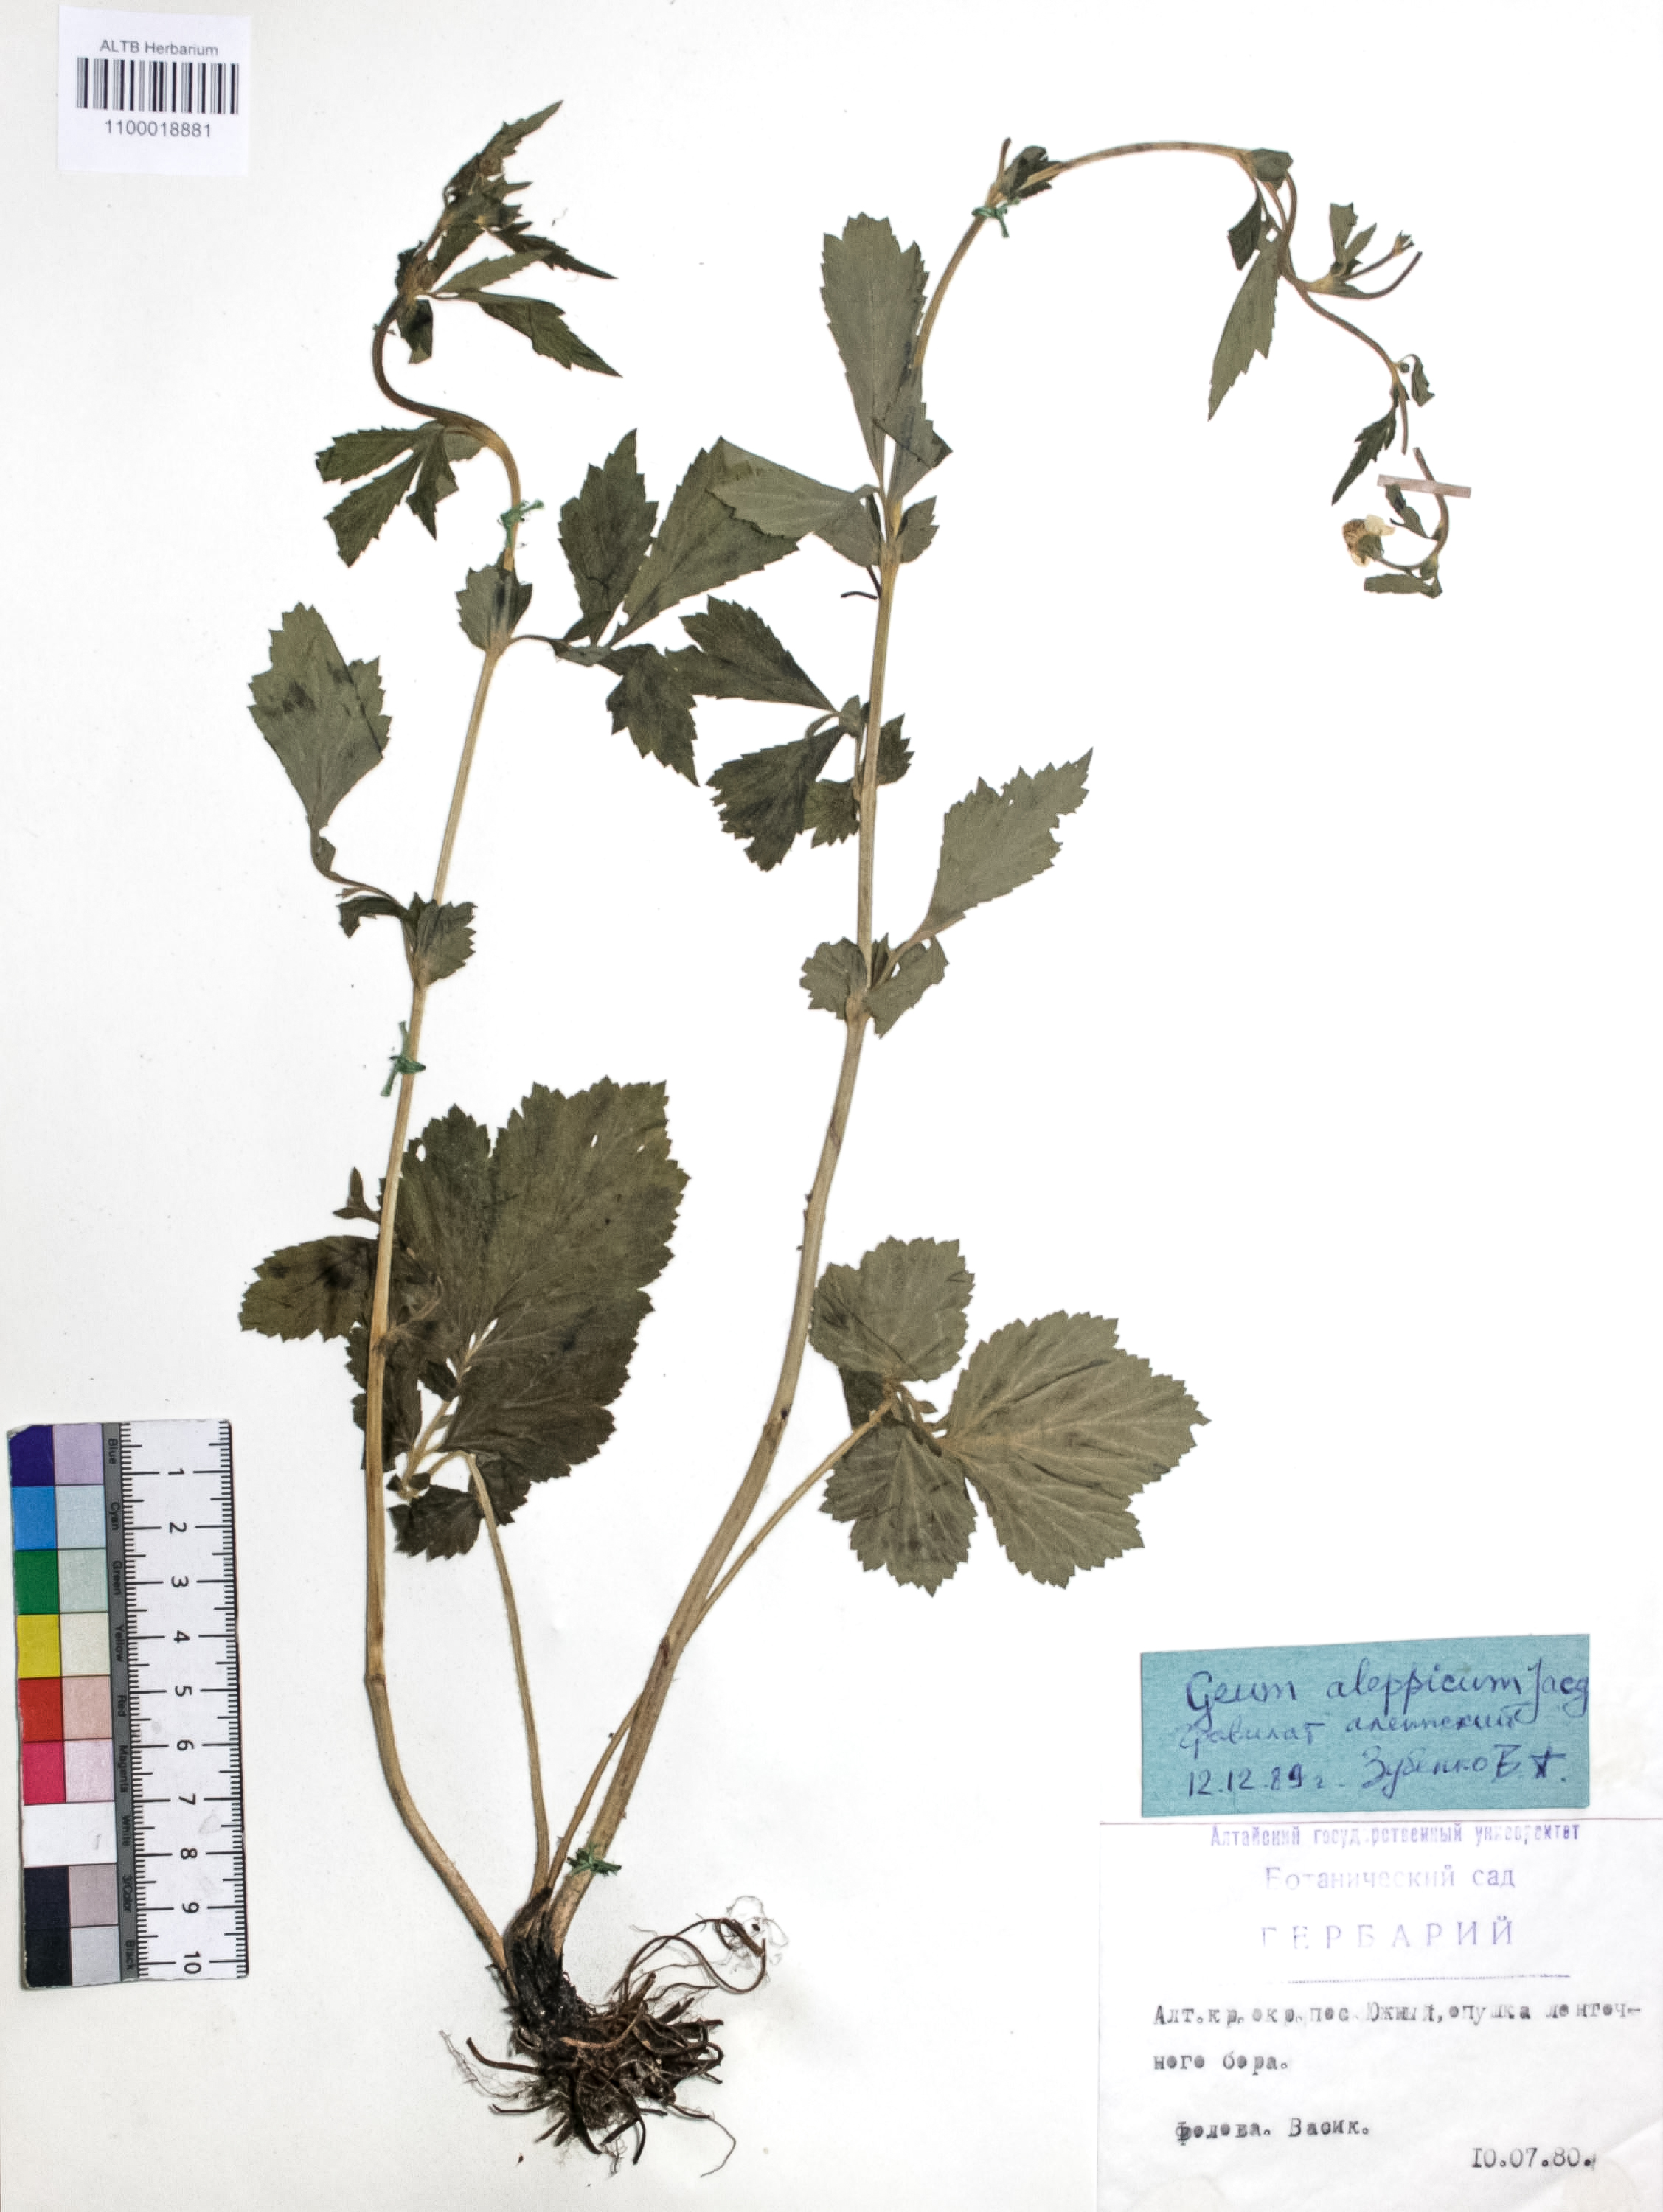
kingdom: Plantae
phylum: Tracheophyta
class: Magnoliopsida
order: Rosales
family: Rosaceae
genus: Geum
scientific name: Geum aleppicum
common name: Yellow avens
